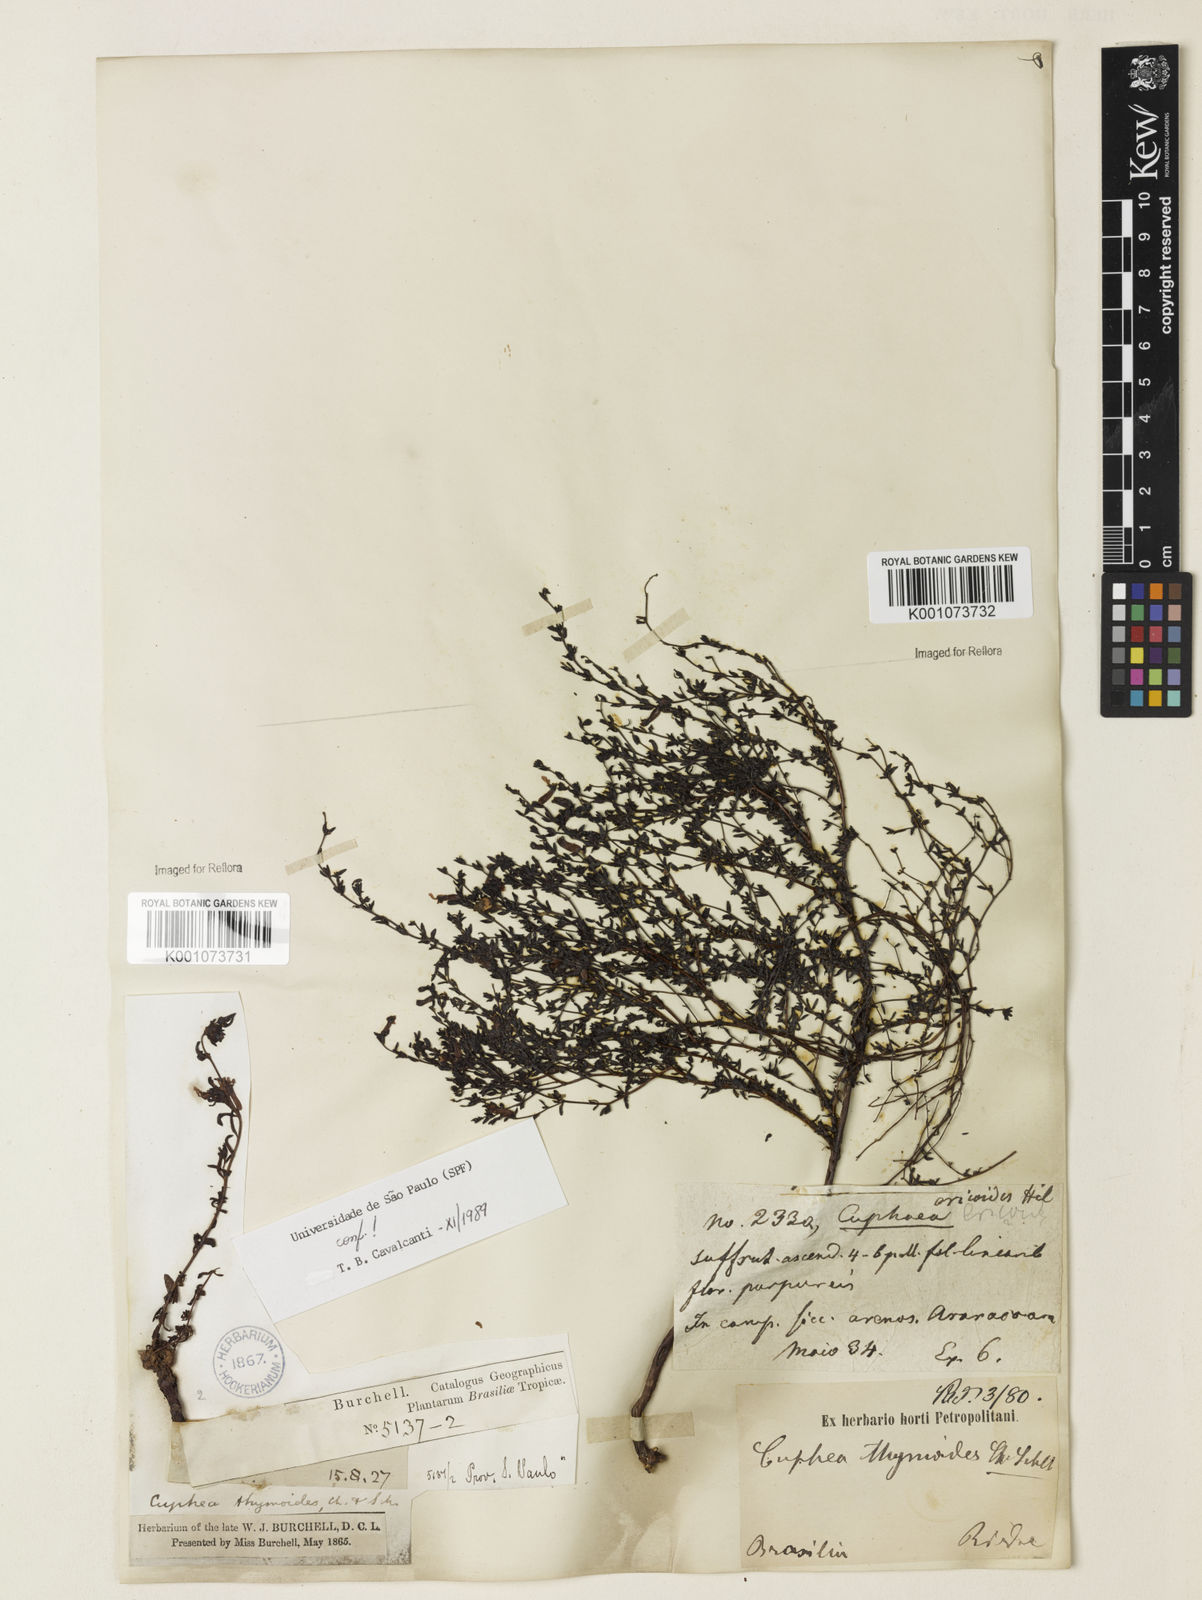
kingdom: Plantae
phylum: Tracheophyta
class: Magnoliopsida
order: Myrtales
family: Lythraceae
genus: Cuphea
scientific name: Cuphea thymoides
